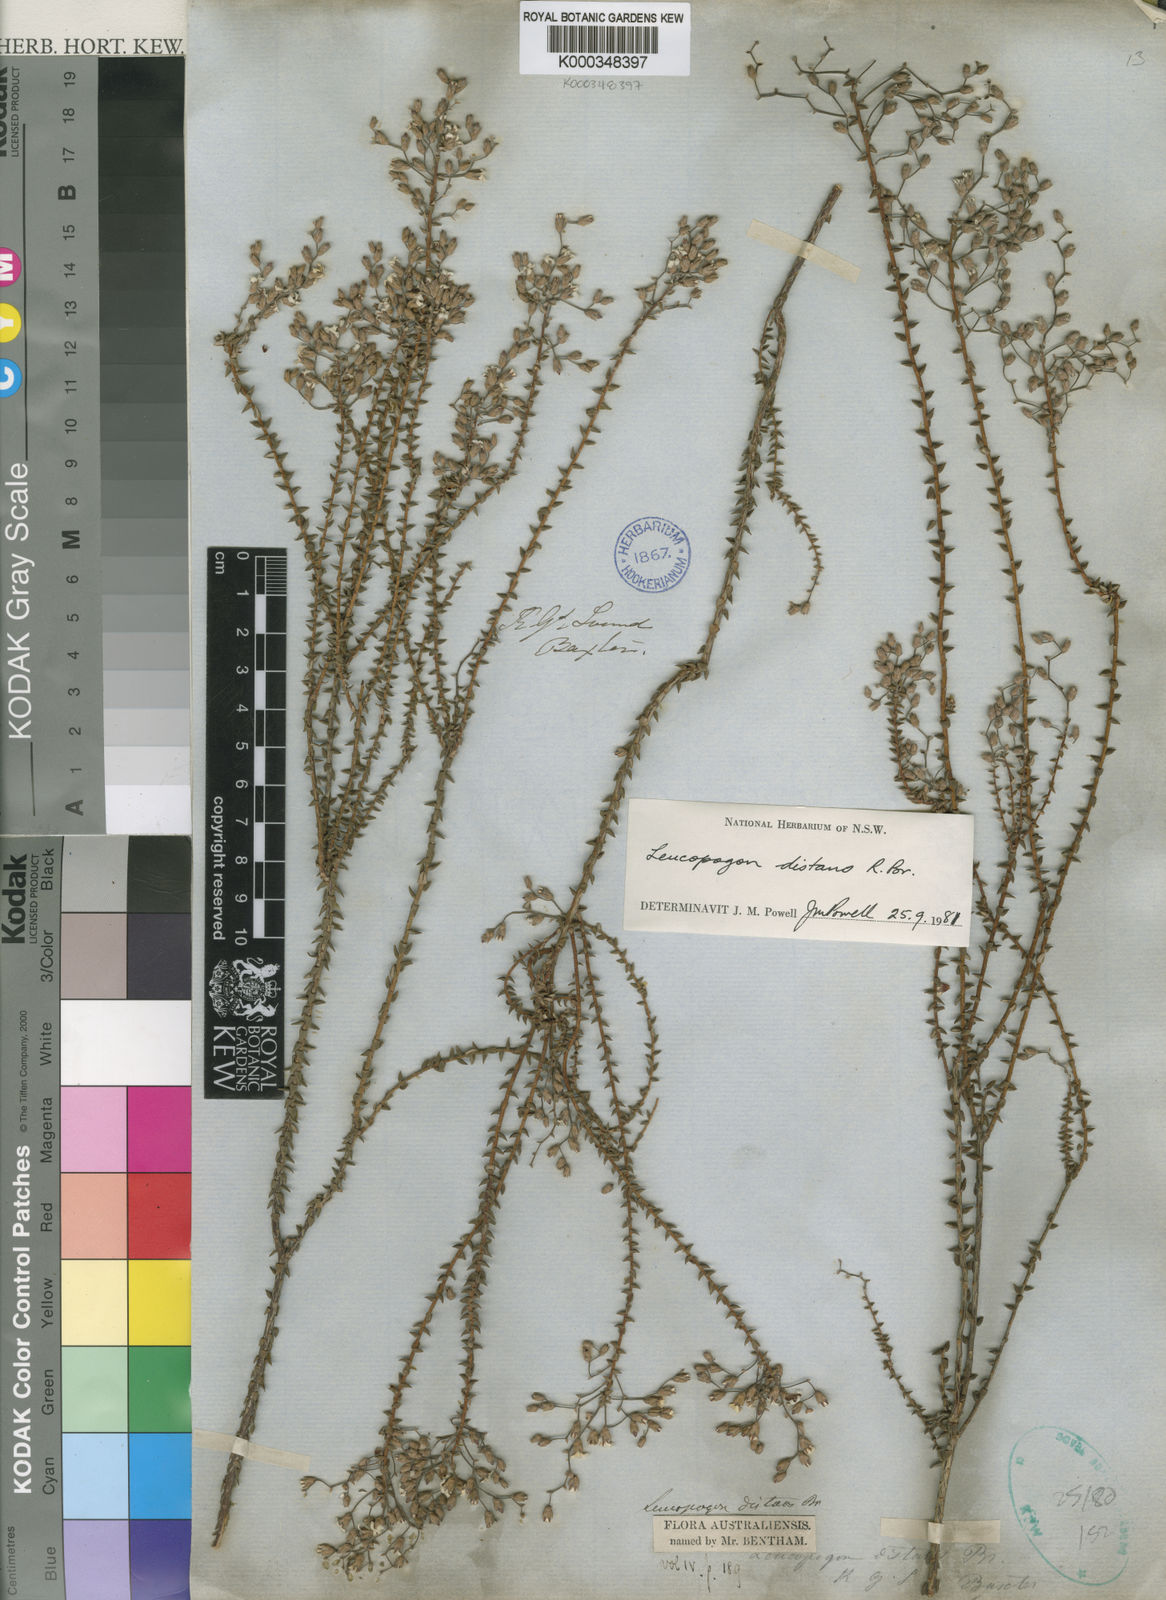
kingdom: Plantae
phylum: Tracheophyta
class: Magnoliopsida
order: Ericales
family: Ericaceae
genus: Leucopogon
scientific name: Leucopogon distans
